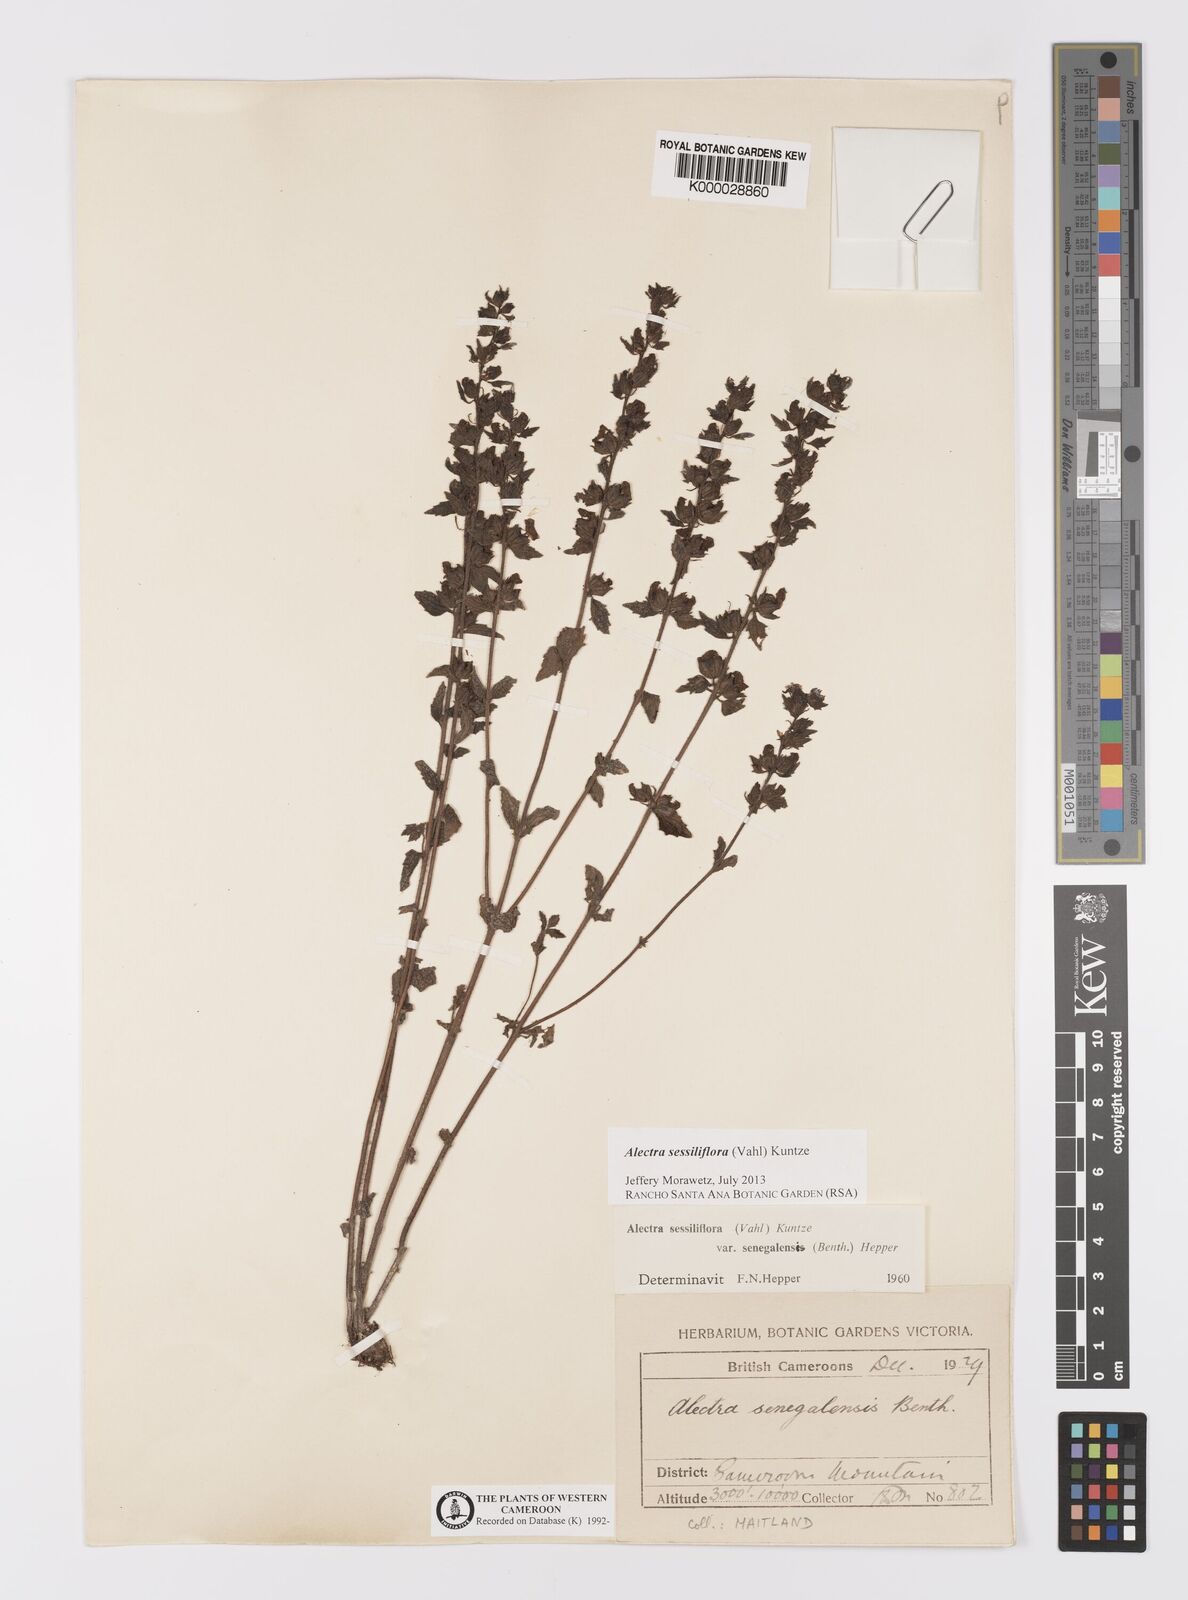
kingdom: Plantae
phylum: Tracheophyta
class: Magnoliopsida
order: Lamiales
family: Orobanchaceae
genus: Alectra
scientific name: Alectra sessiliflora
